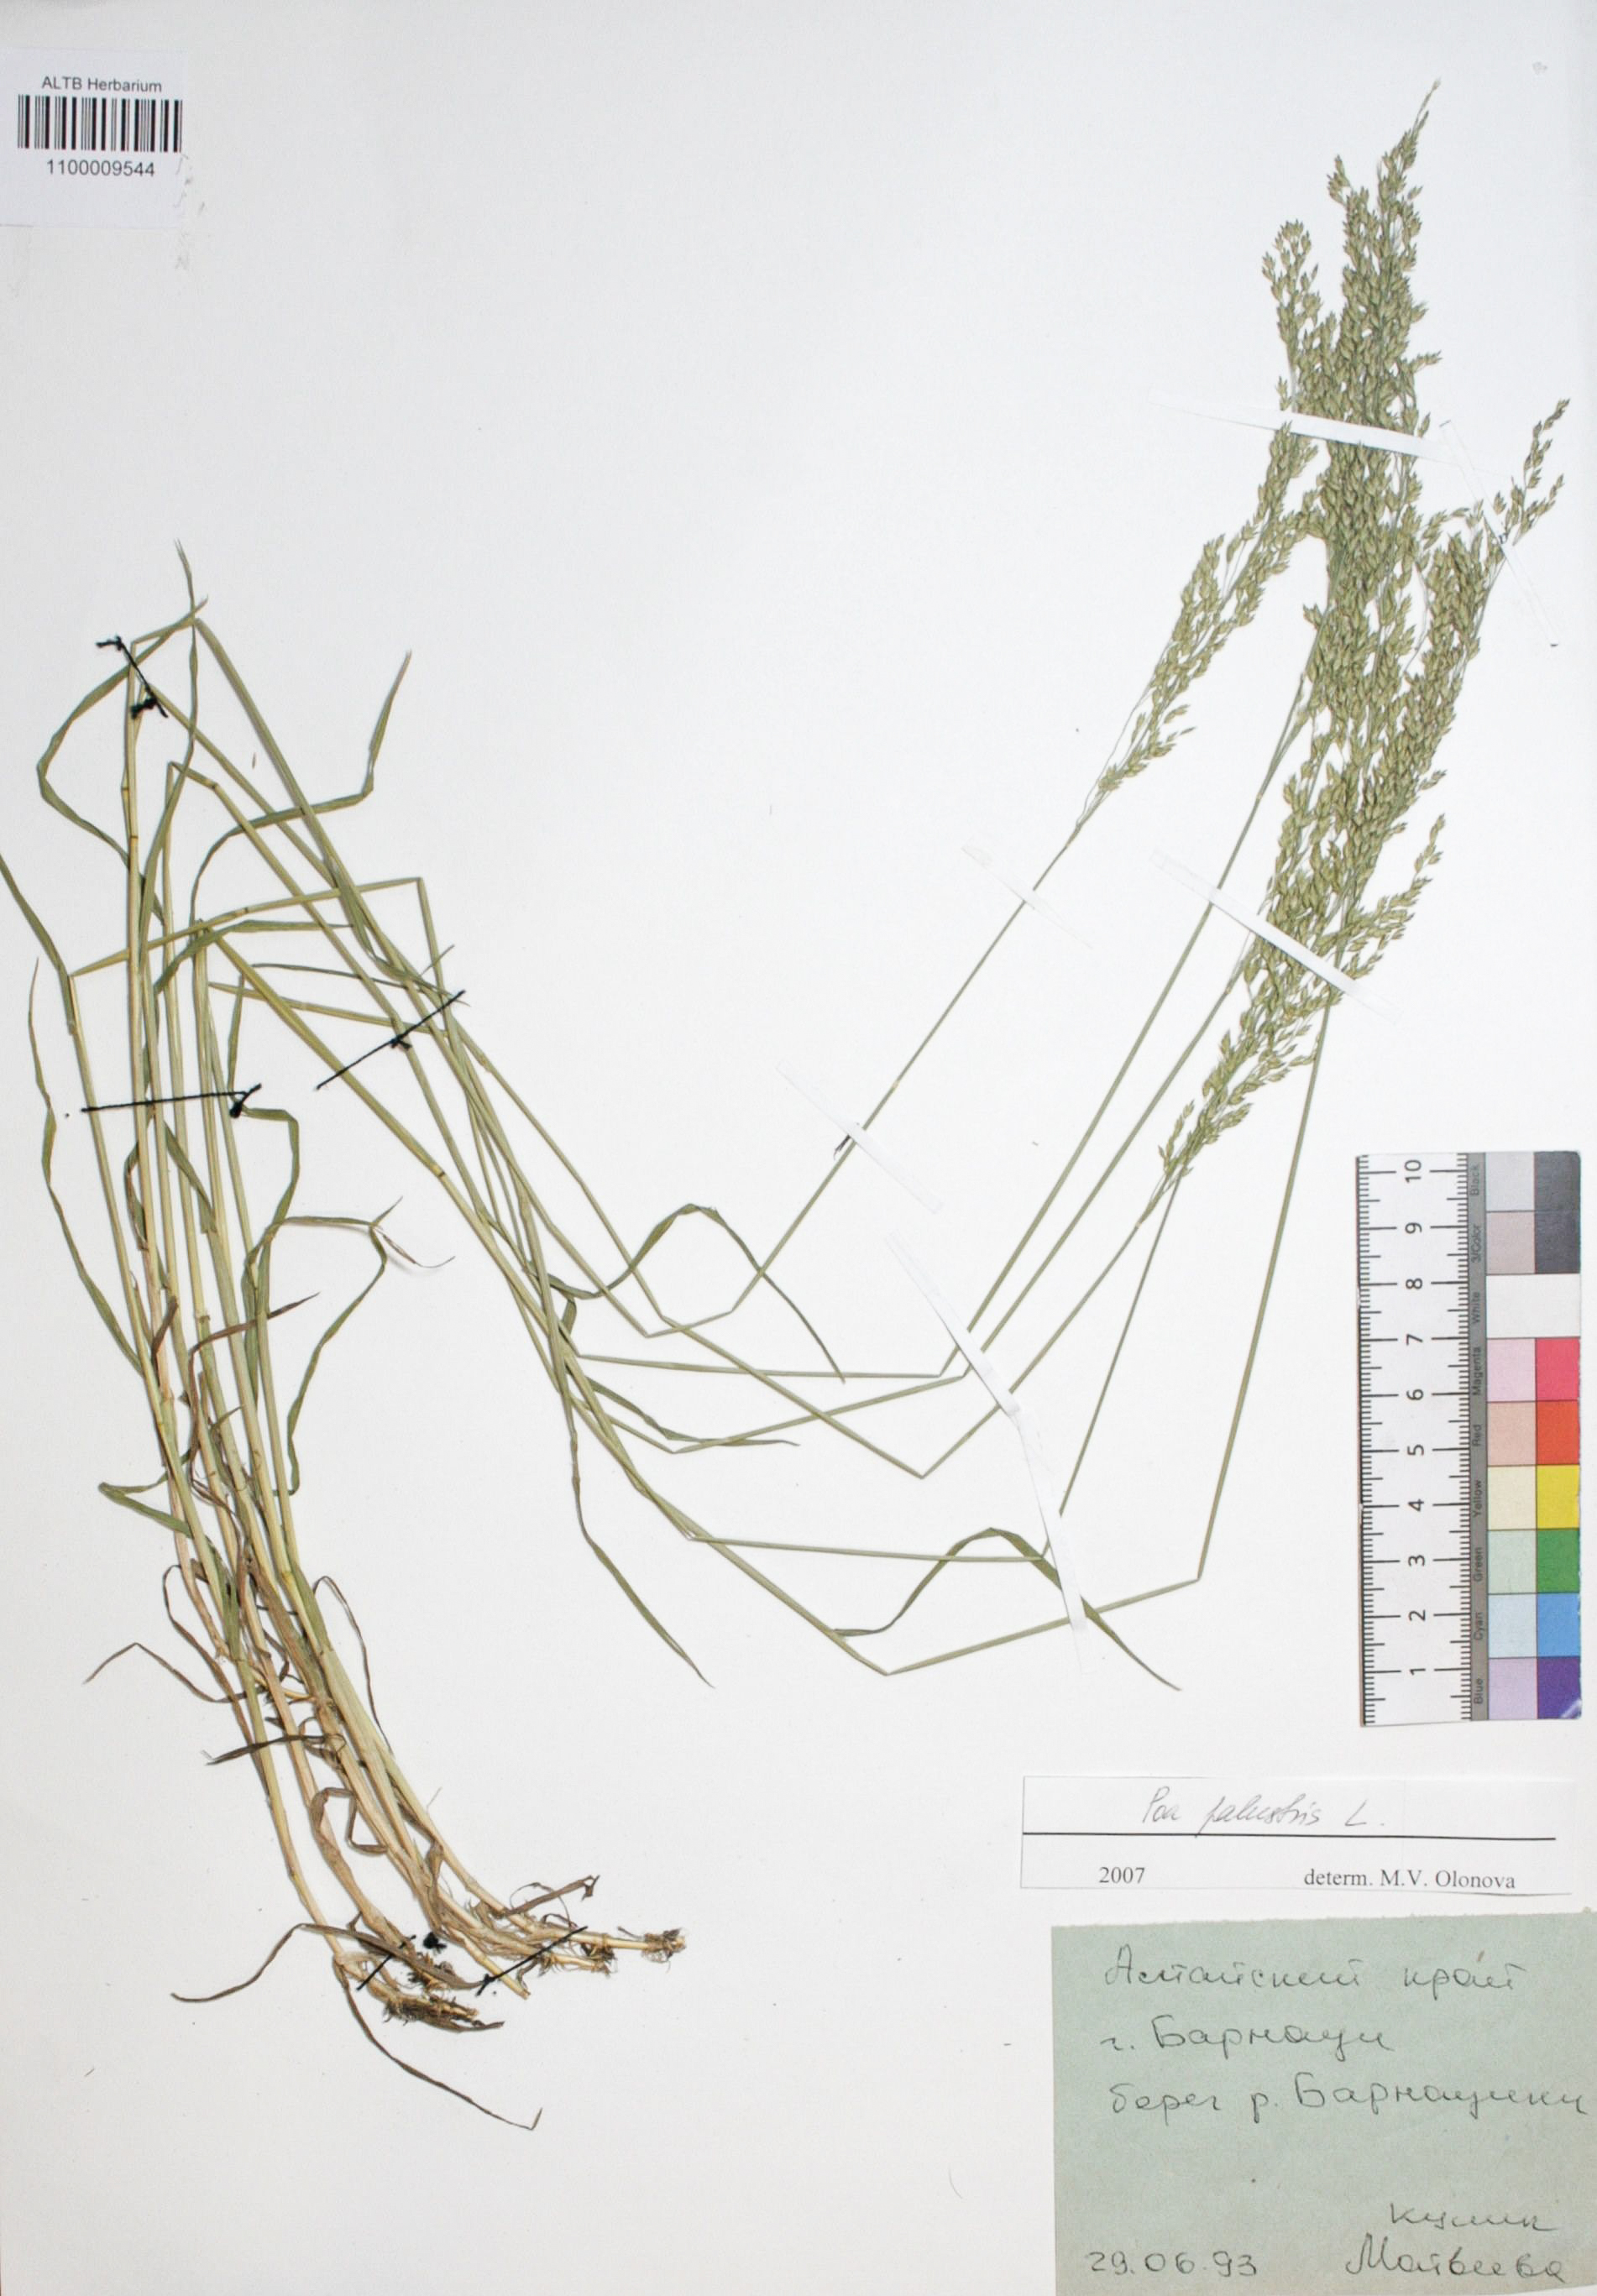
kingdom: Plantae
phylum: Tracheophyta
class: Liliopsida
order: Poales
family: Poaceae
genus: Poa
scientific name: Poa palustris
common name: Swamp meadow-grass
